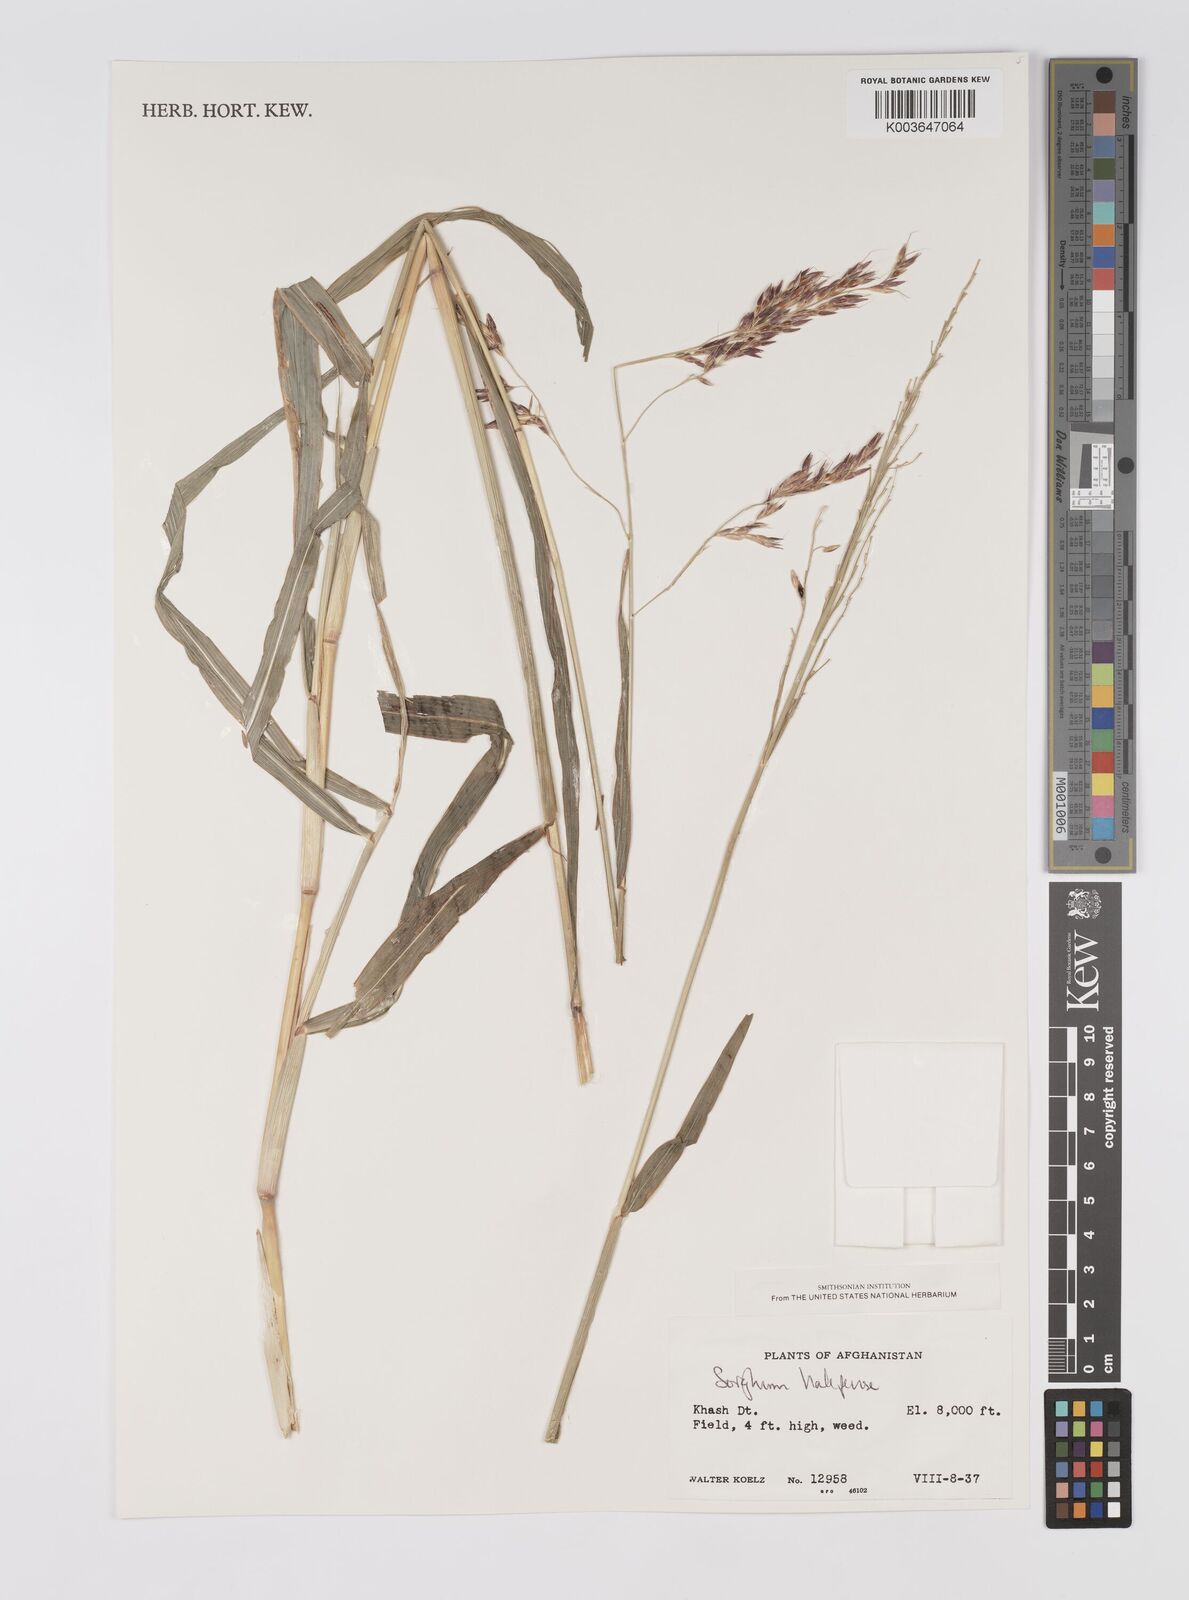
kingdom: Plantae
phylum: Tracheophyta
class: Liliopsida
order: Poales
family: Poaceae
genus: Sorghum
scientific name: Sorghum halepense
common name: Johnson-grass
